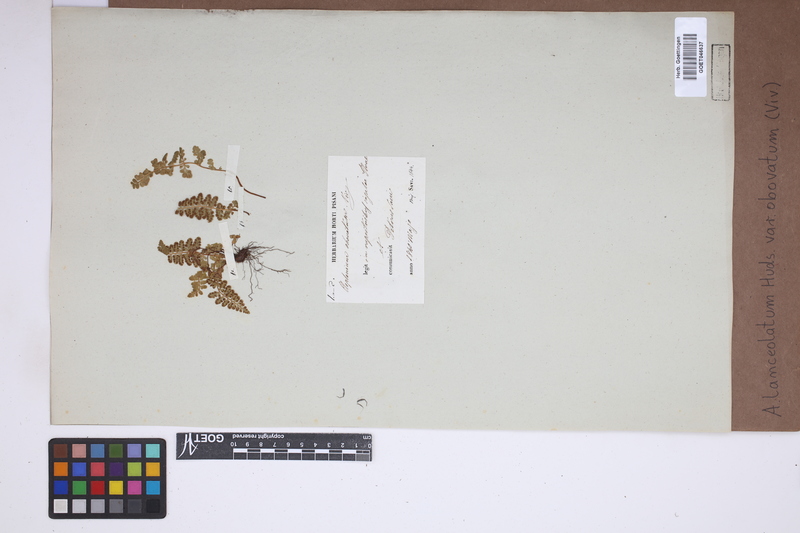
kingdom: Plantae
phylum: Tracheophyta
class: Polypodiopsida
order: Polypodiales
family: Aspleniaceae
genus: Asplenium
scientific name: Asplenium obovatum
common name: Lanceolate spleenwort
